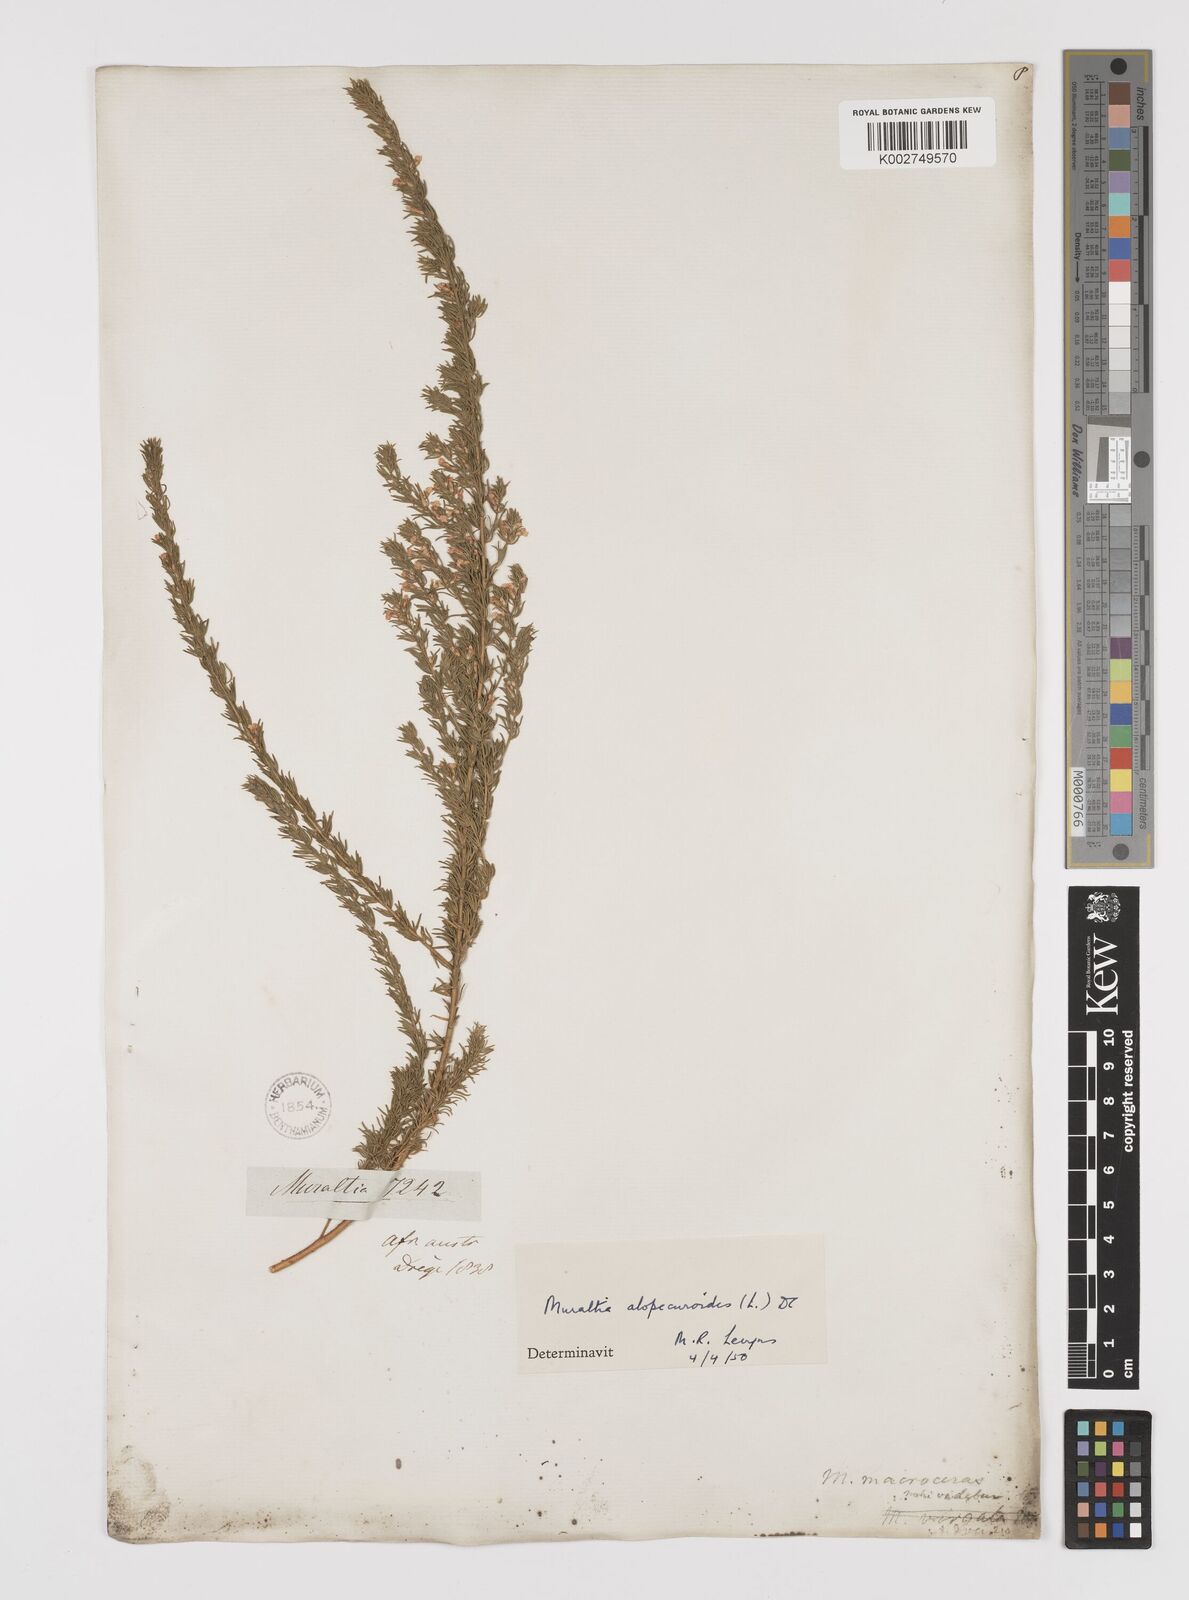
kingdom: Plantae
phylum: Tracheophyta
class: Magnoliopsida
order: Fabales
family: Polygalaceae
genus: Muraltia
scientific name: Muraltia alopecuroides
